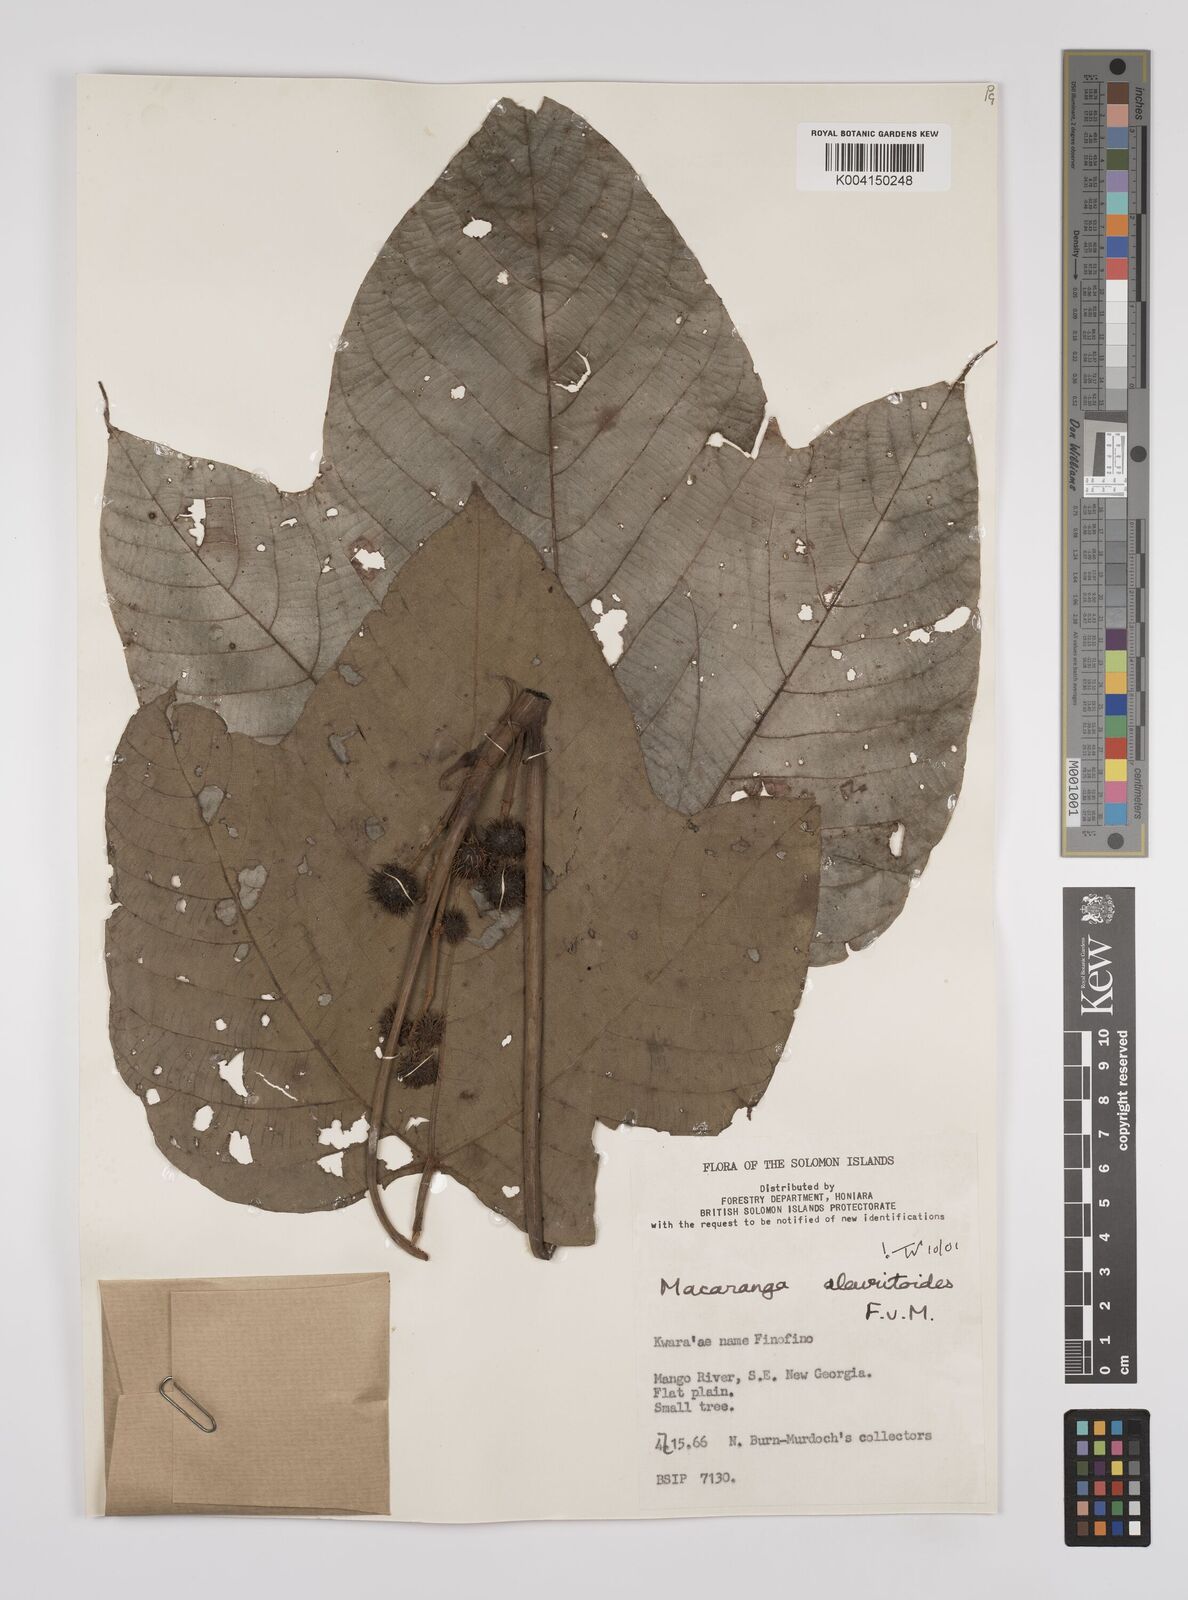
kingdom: Plantae
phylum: Tracheophyta
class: Magnoliopsida
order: Malpighiales
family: Euphorbiaceae
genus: Macaranga
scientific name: Macaranga aleuritoides
